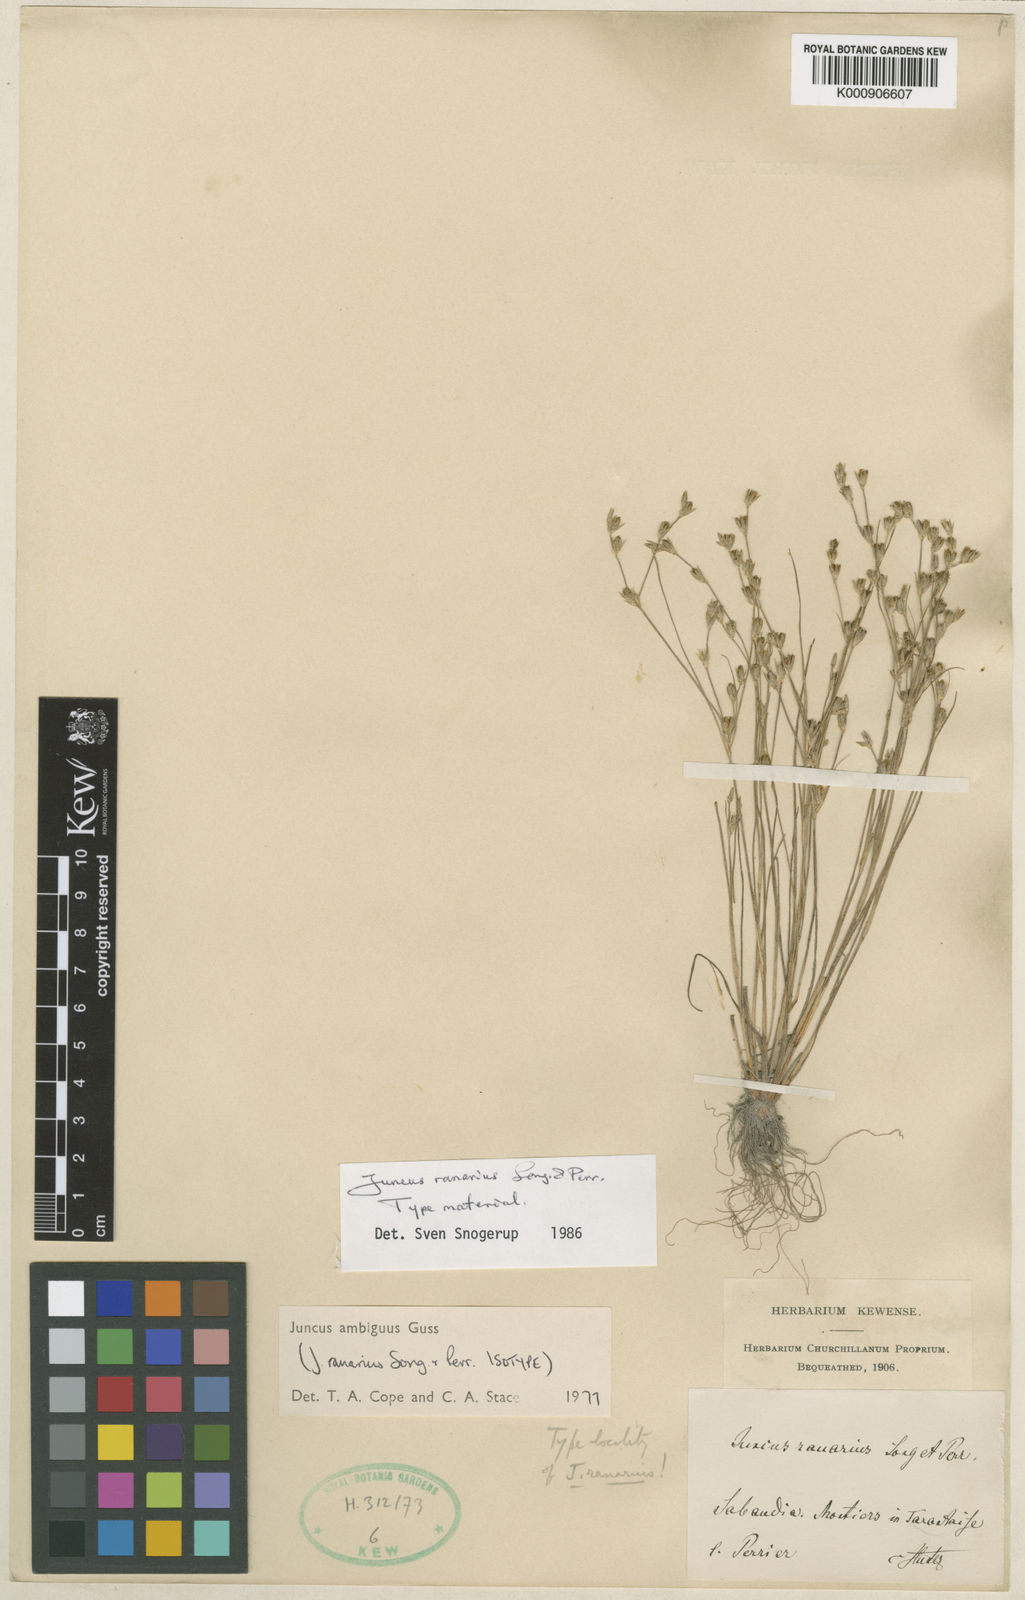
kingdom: Plantae
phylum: Tracheophyta
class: Liliopsida
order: Poales
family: Juncaceae
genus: Juncus
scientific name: Juncus hybridus
